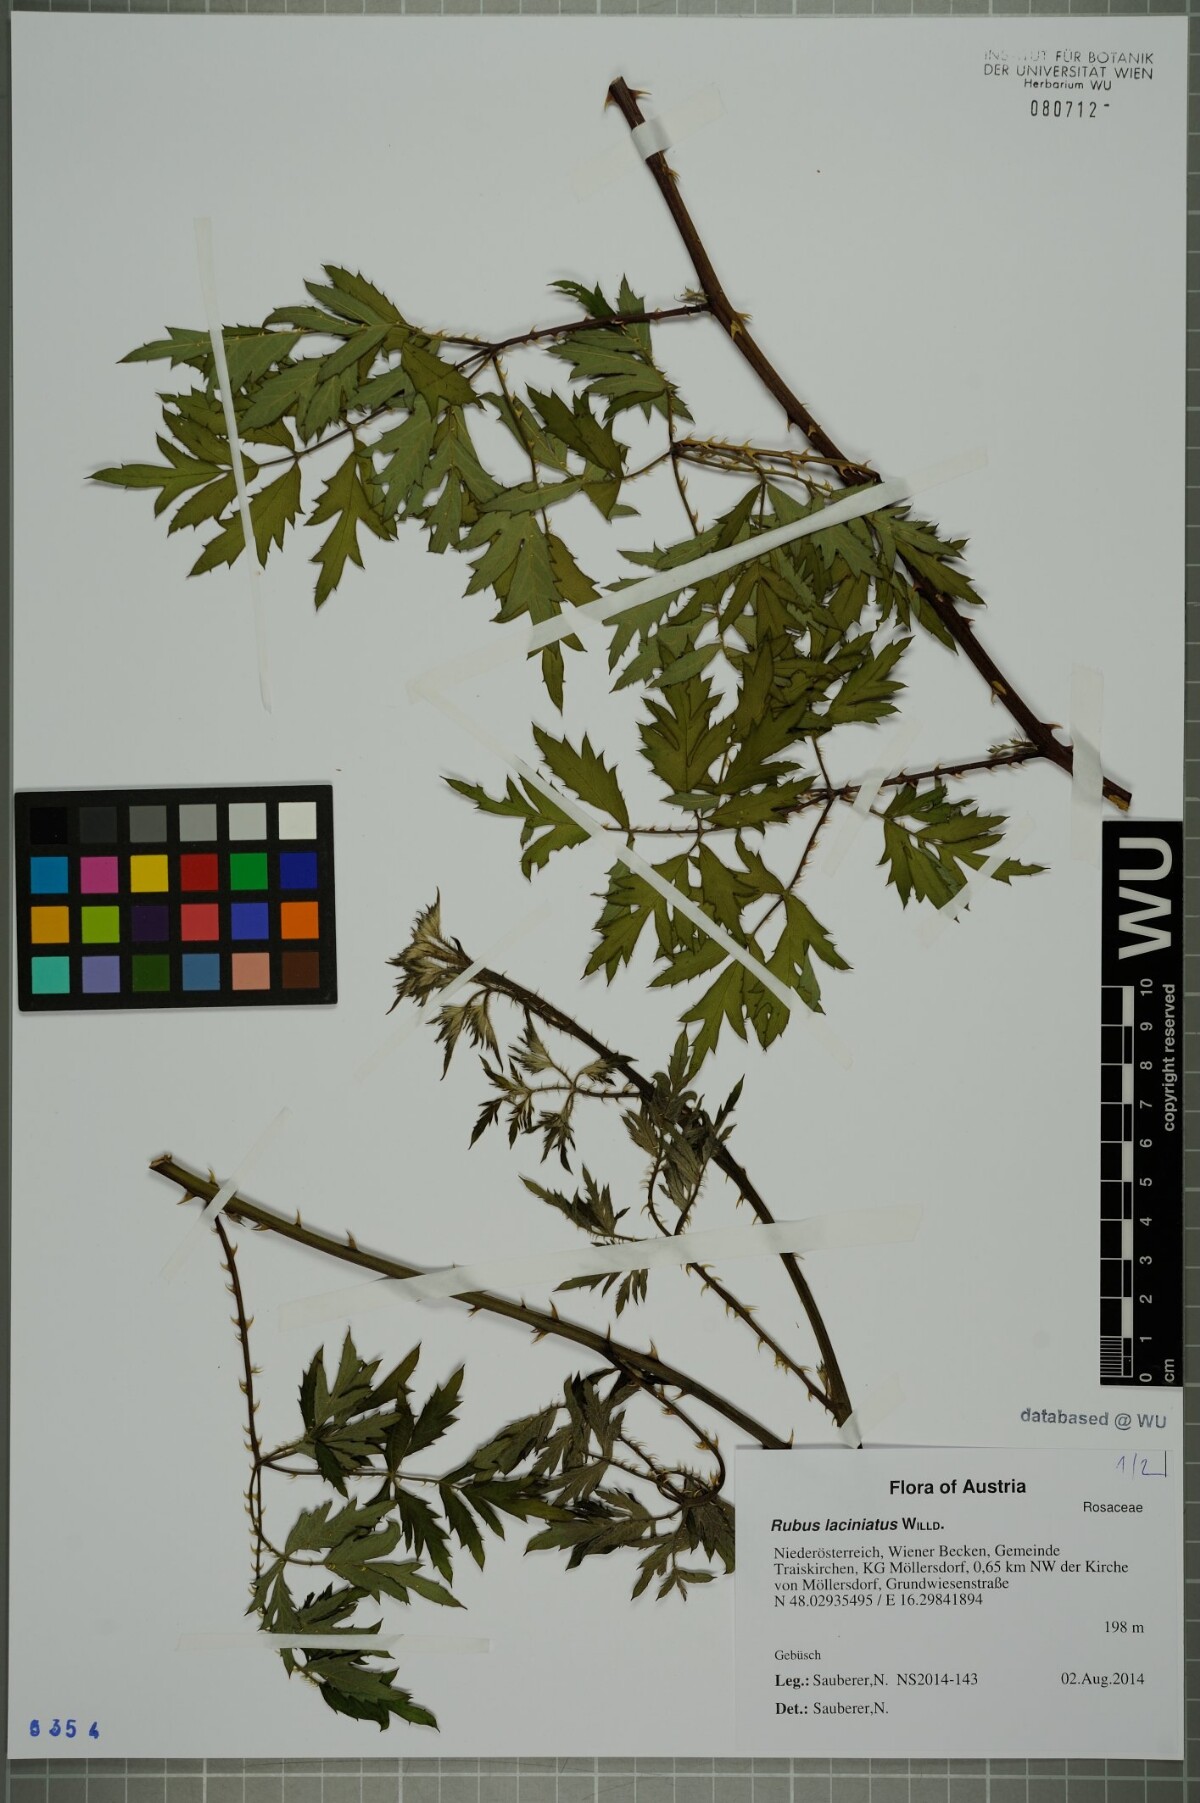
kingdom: Plantae
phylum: Tracheophyta
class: Magnoliopsida
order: Rosales
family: Rosaceae
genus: Rubus
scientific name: Rubus laciniatus
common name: Evergreen blackberry
